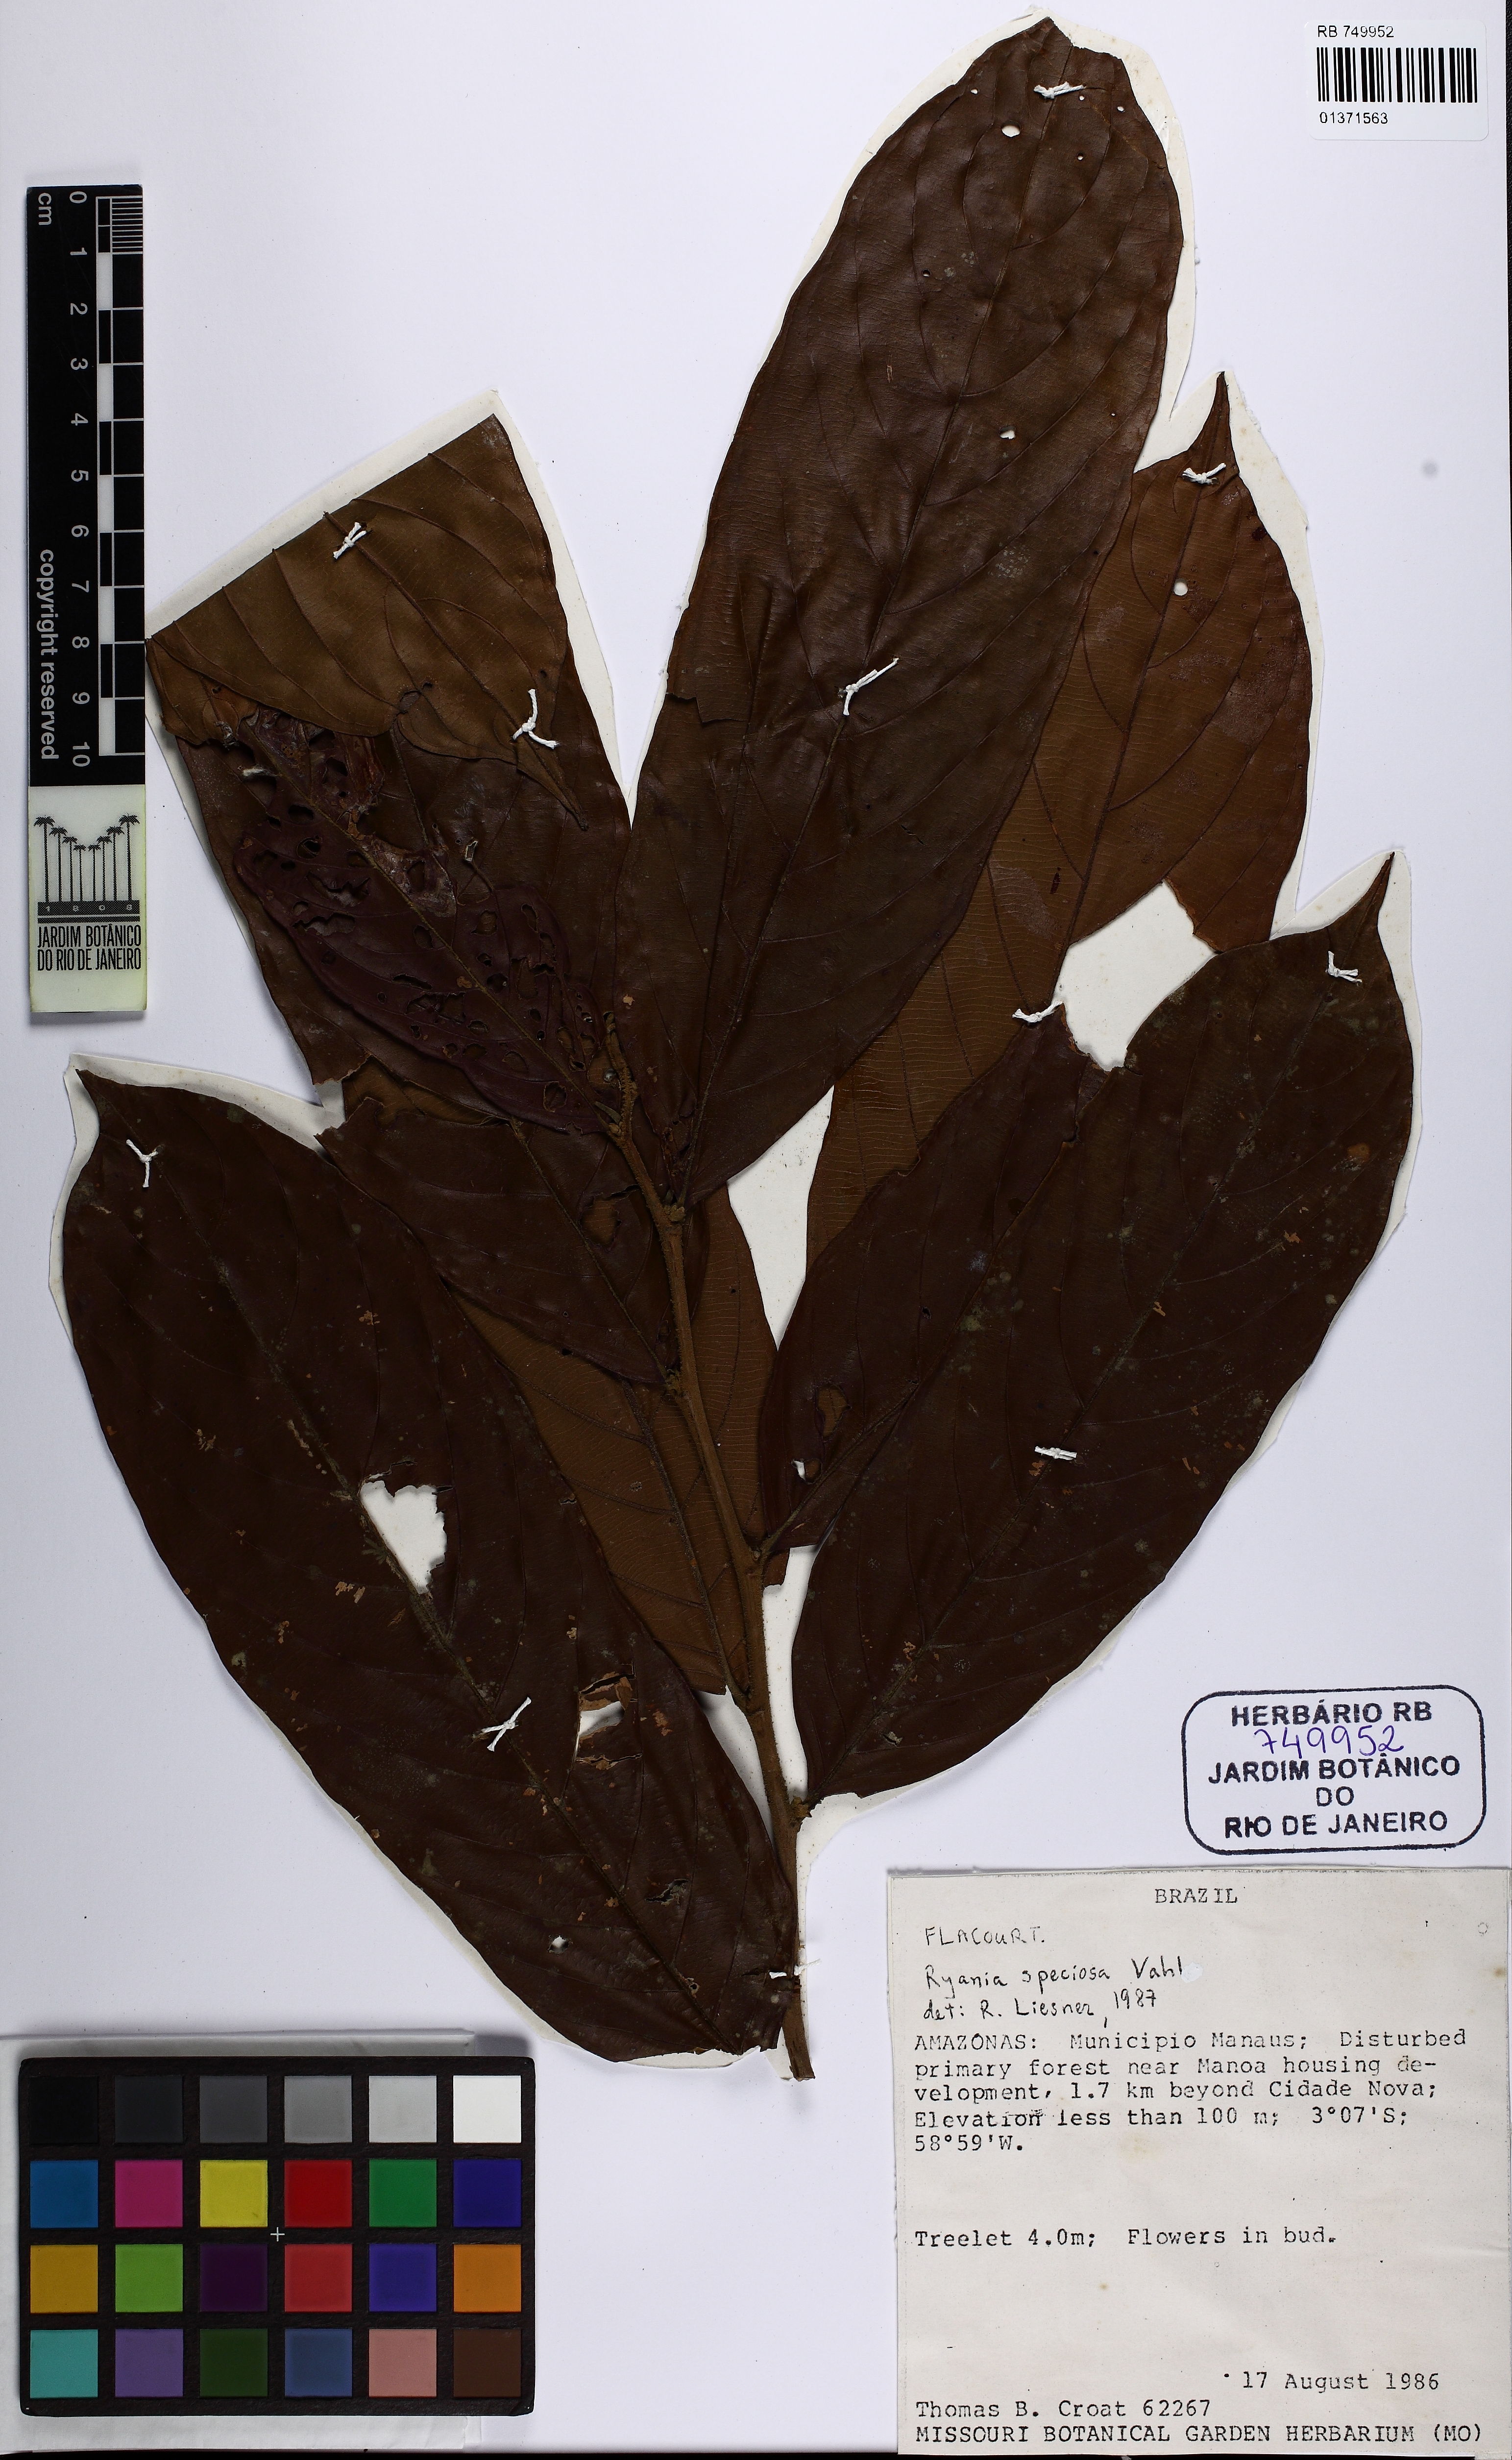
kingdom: Plantae
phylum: Tracheophyta
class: Magnoliopsida
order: Malpighiales
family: Salicaceae
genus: Ryania
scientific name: Ryania speciosa
